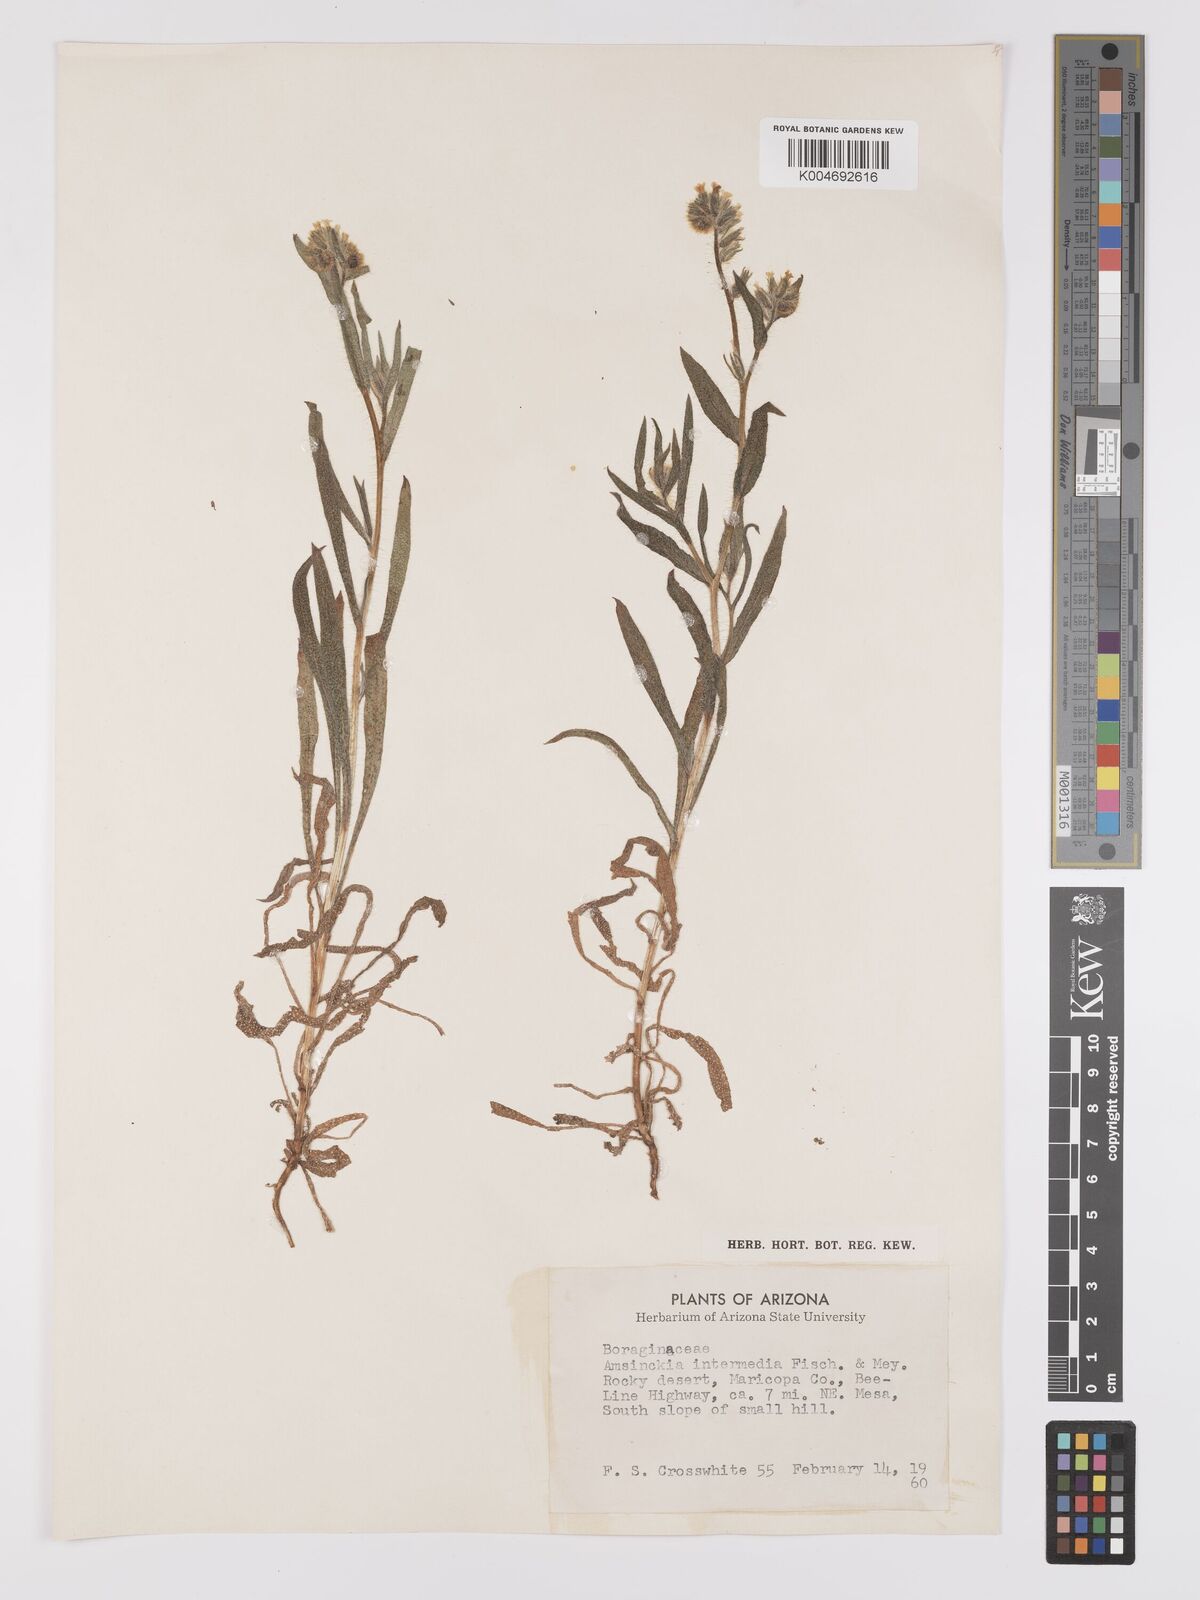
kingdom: Plantae
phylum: Tracheophyta
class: Magnoliopsida
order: Boraginales
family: Boraginaceae
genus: Amsinckia
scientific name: Amsinckia menziesii
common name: Menzies' fiddleneck
